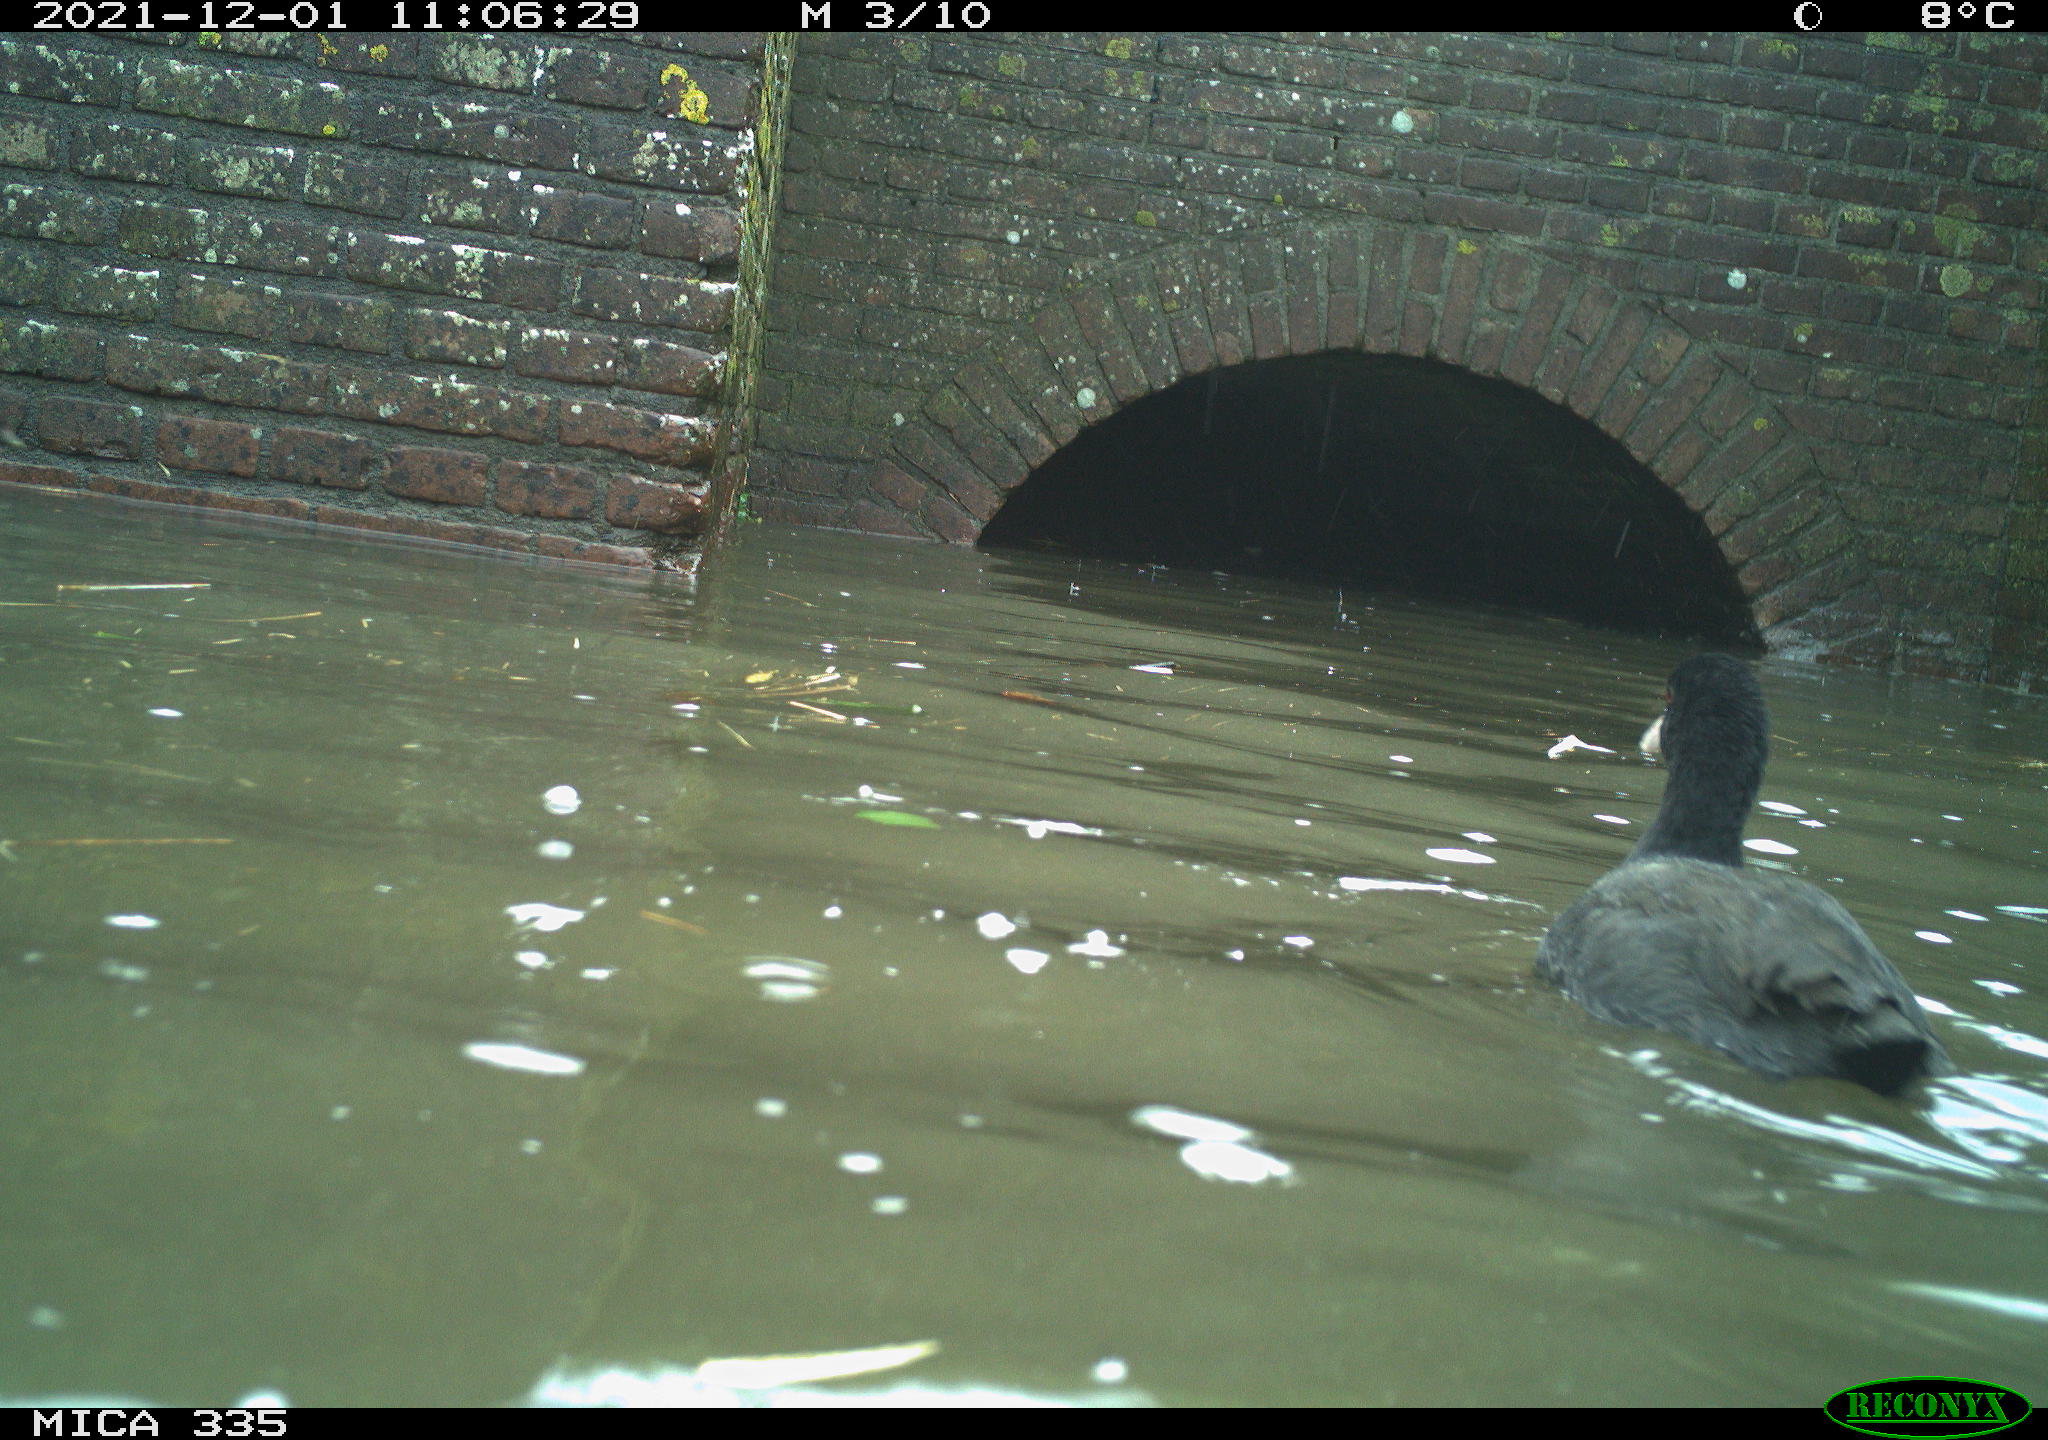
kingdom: Animalia
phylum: Chordata
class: Aves
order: Gruiformes
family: Rallidae
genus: Gallinula
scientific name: Gallinula chloropus
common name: Common moorhen
